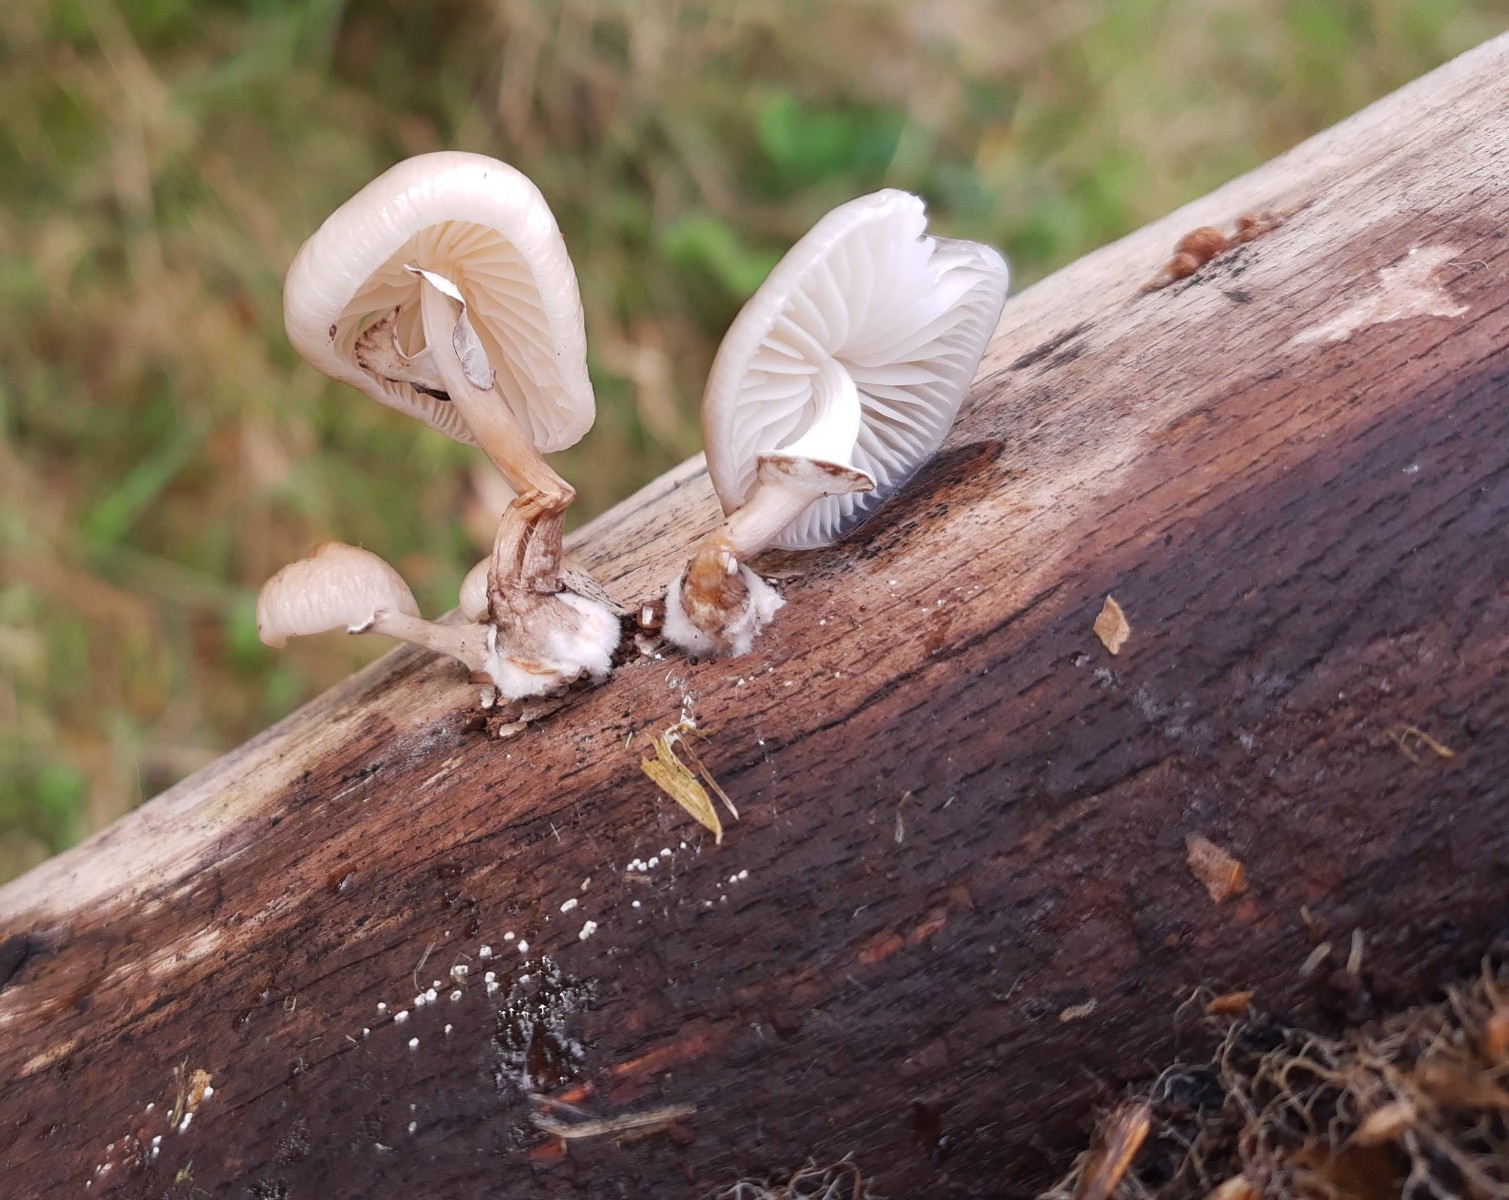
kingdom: Fungi
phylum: Basidiomycota
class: Agaricomycetes
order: Agaricales
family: Physalacriaceae
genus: Mucidula
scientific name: Mucidula mucida
